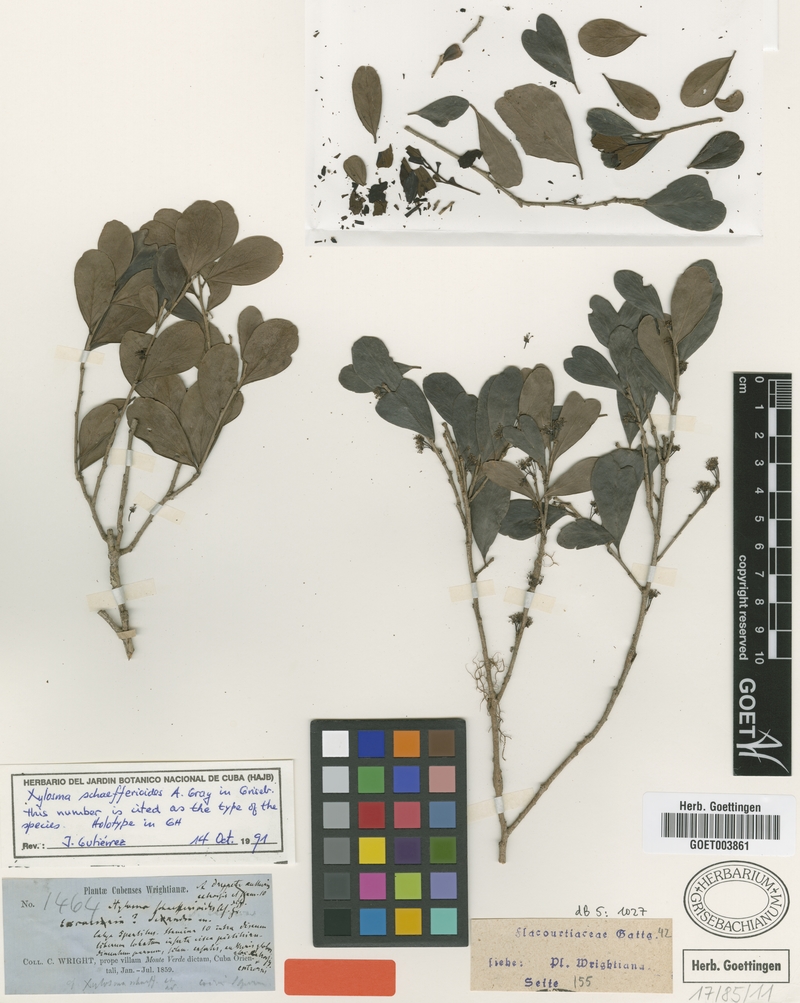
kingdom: Plantae
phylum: Tracheophyta
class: Magnoliopsida
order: Malpighiales
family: Salicaceae
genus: Xylosma
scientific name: Xylosma schaefferioides
